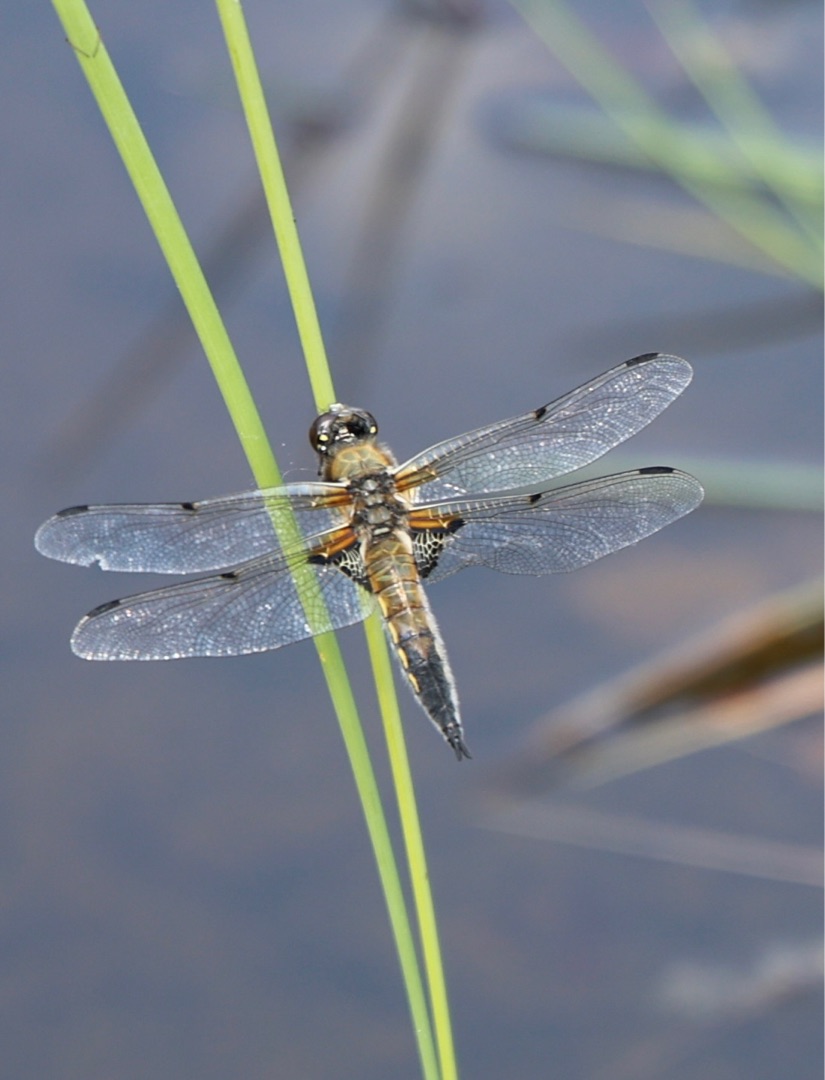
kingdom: Animalia
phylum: Arthropoda
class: Insecta
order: Odonata
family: Libellulidae
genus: Libellula
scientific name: Libellula quadrimaculata
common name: Fireplettet libel
